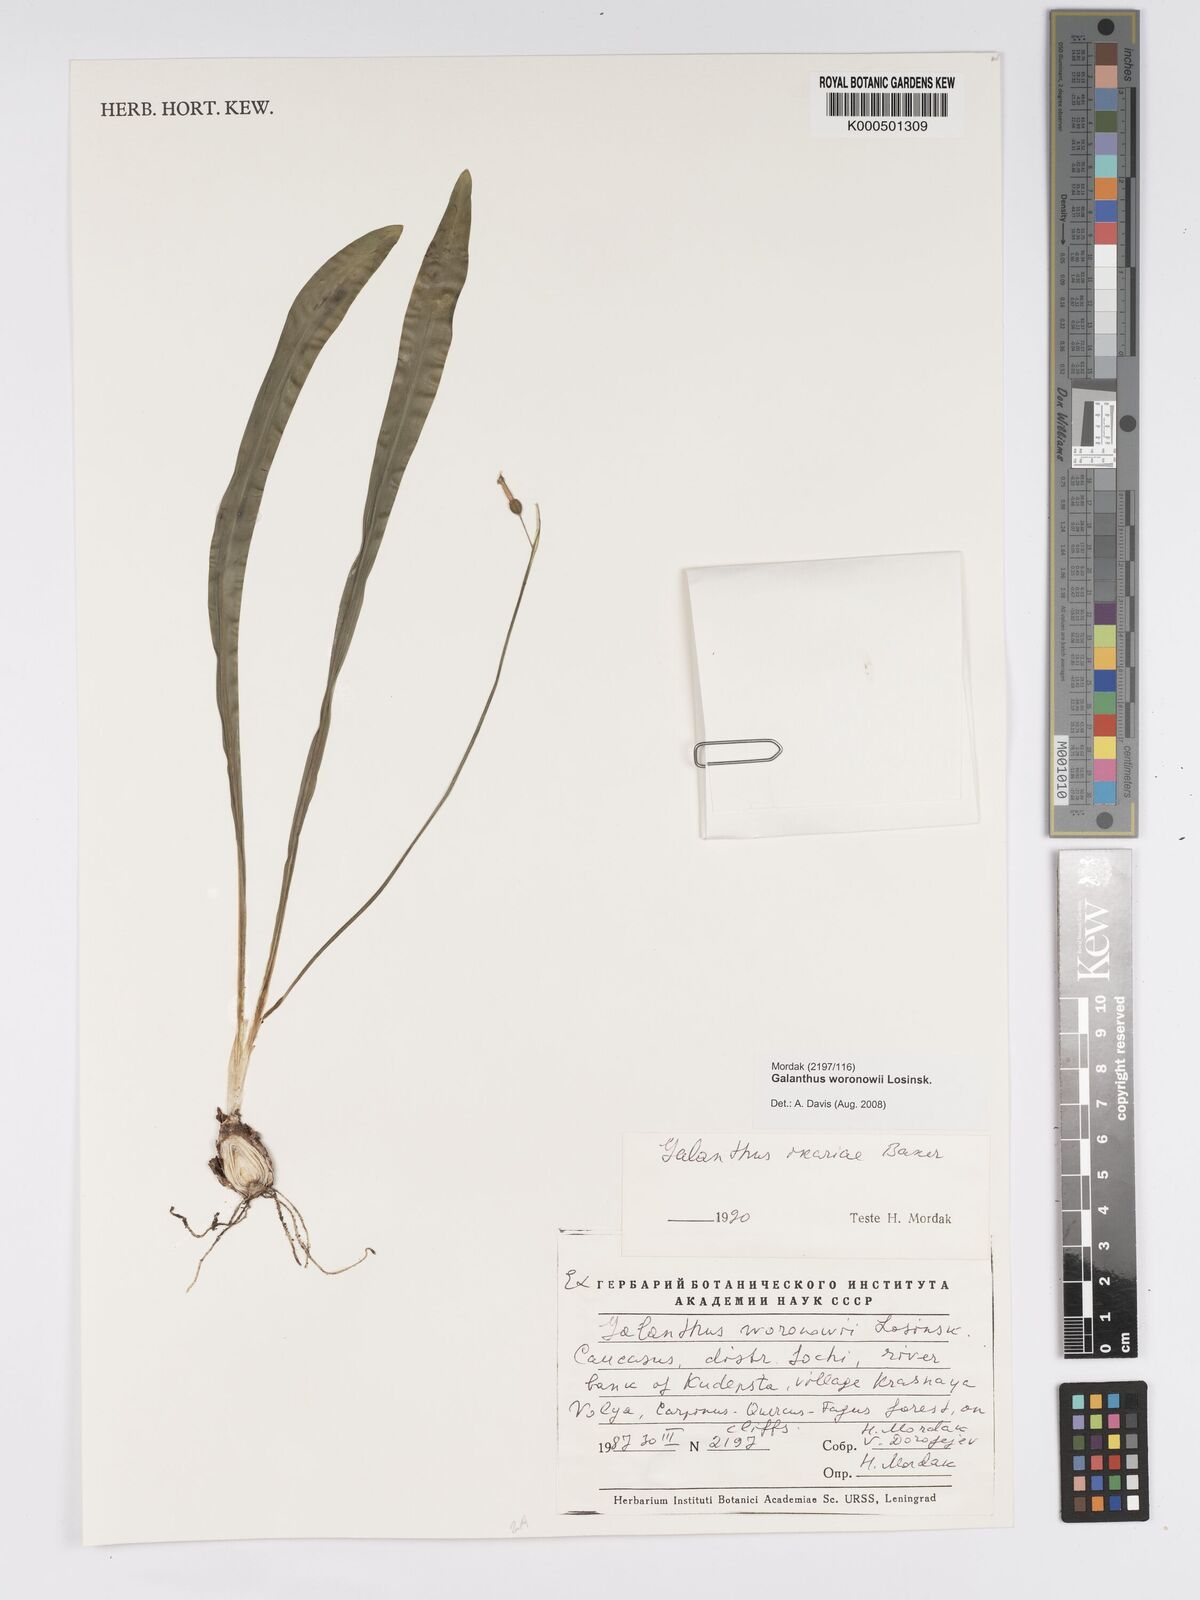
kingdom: Plantae
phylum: Tracheophyta
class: Liliopsida
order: Asparagales
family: Amaryllidaceae
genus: Galanthus
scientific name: Galanthus woronowii
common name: Green snowdrop
